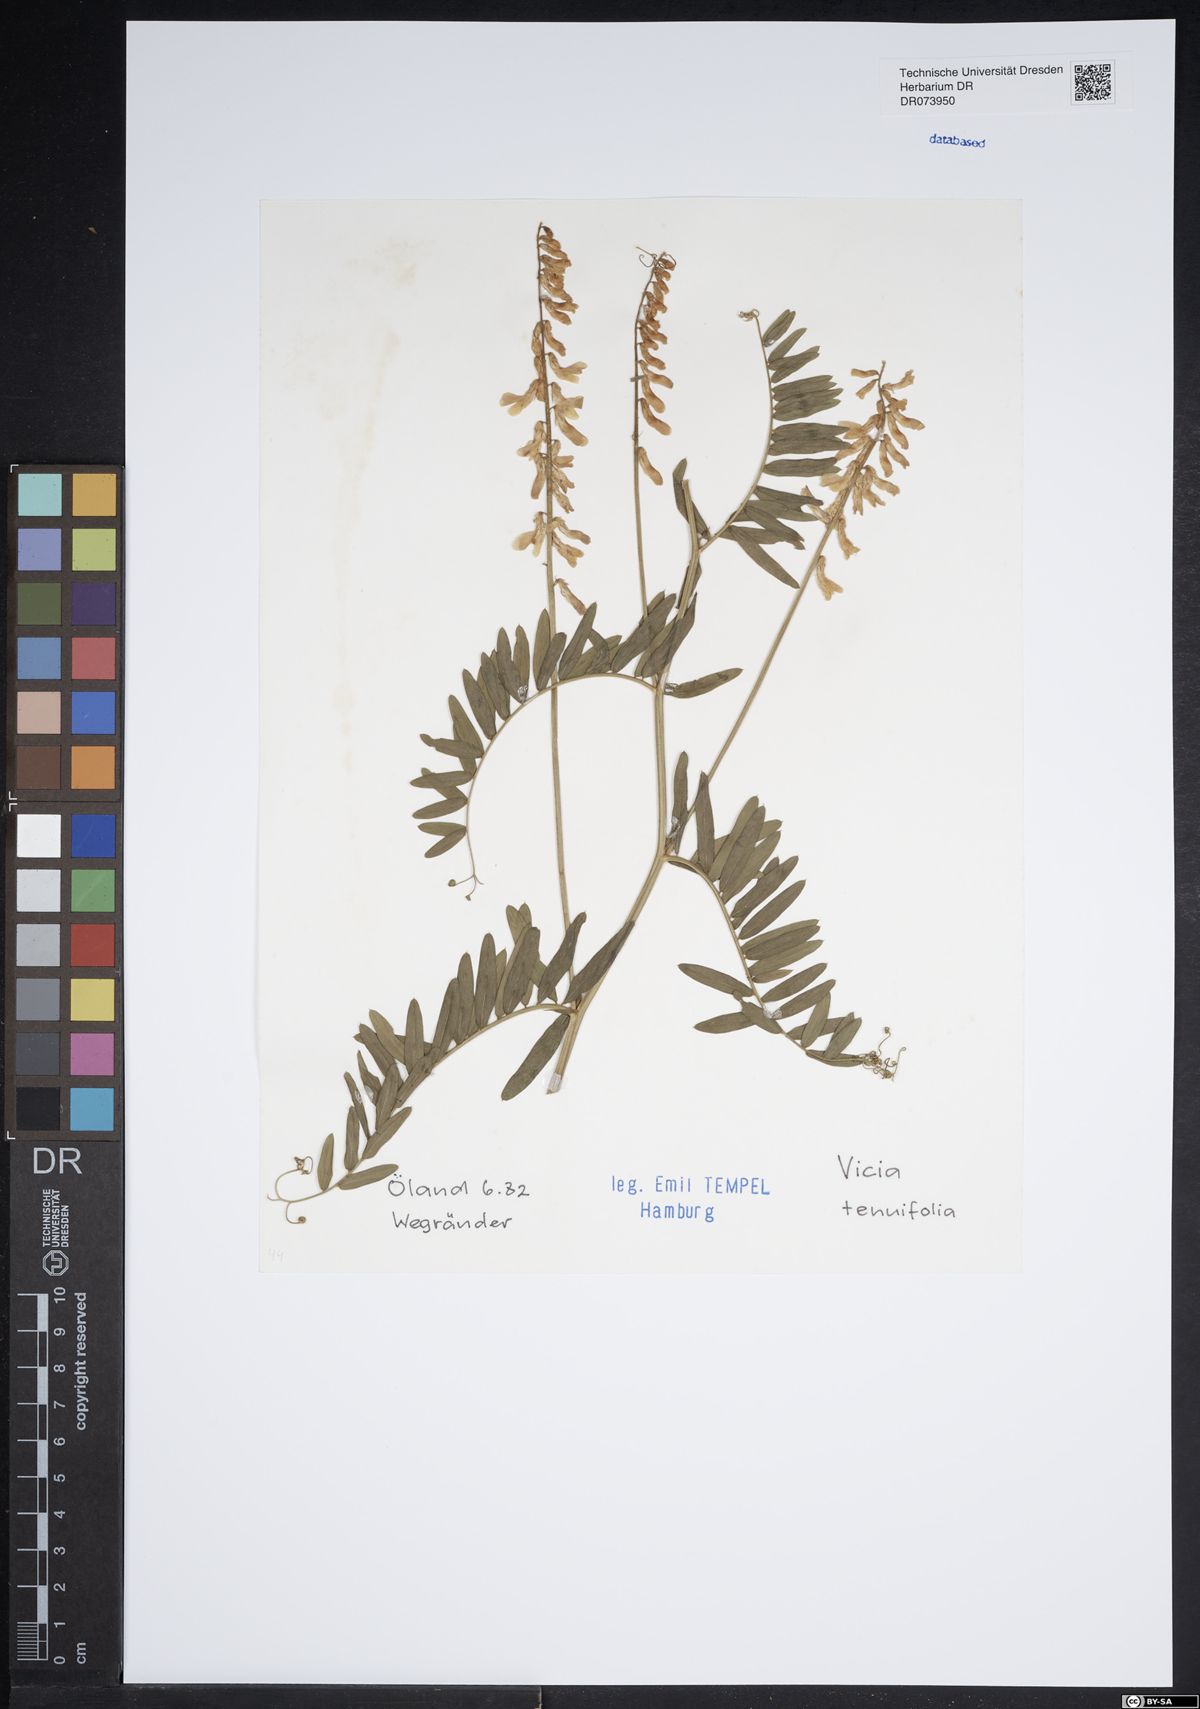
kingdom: Plantae
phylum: Tracheophyta
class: Magnoliopsida
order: Fabales
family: Fabaceae
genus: Vicia
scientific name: Vicia tenuifolia
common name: Fine-leaved vetch
